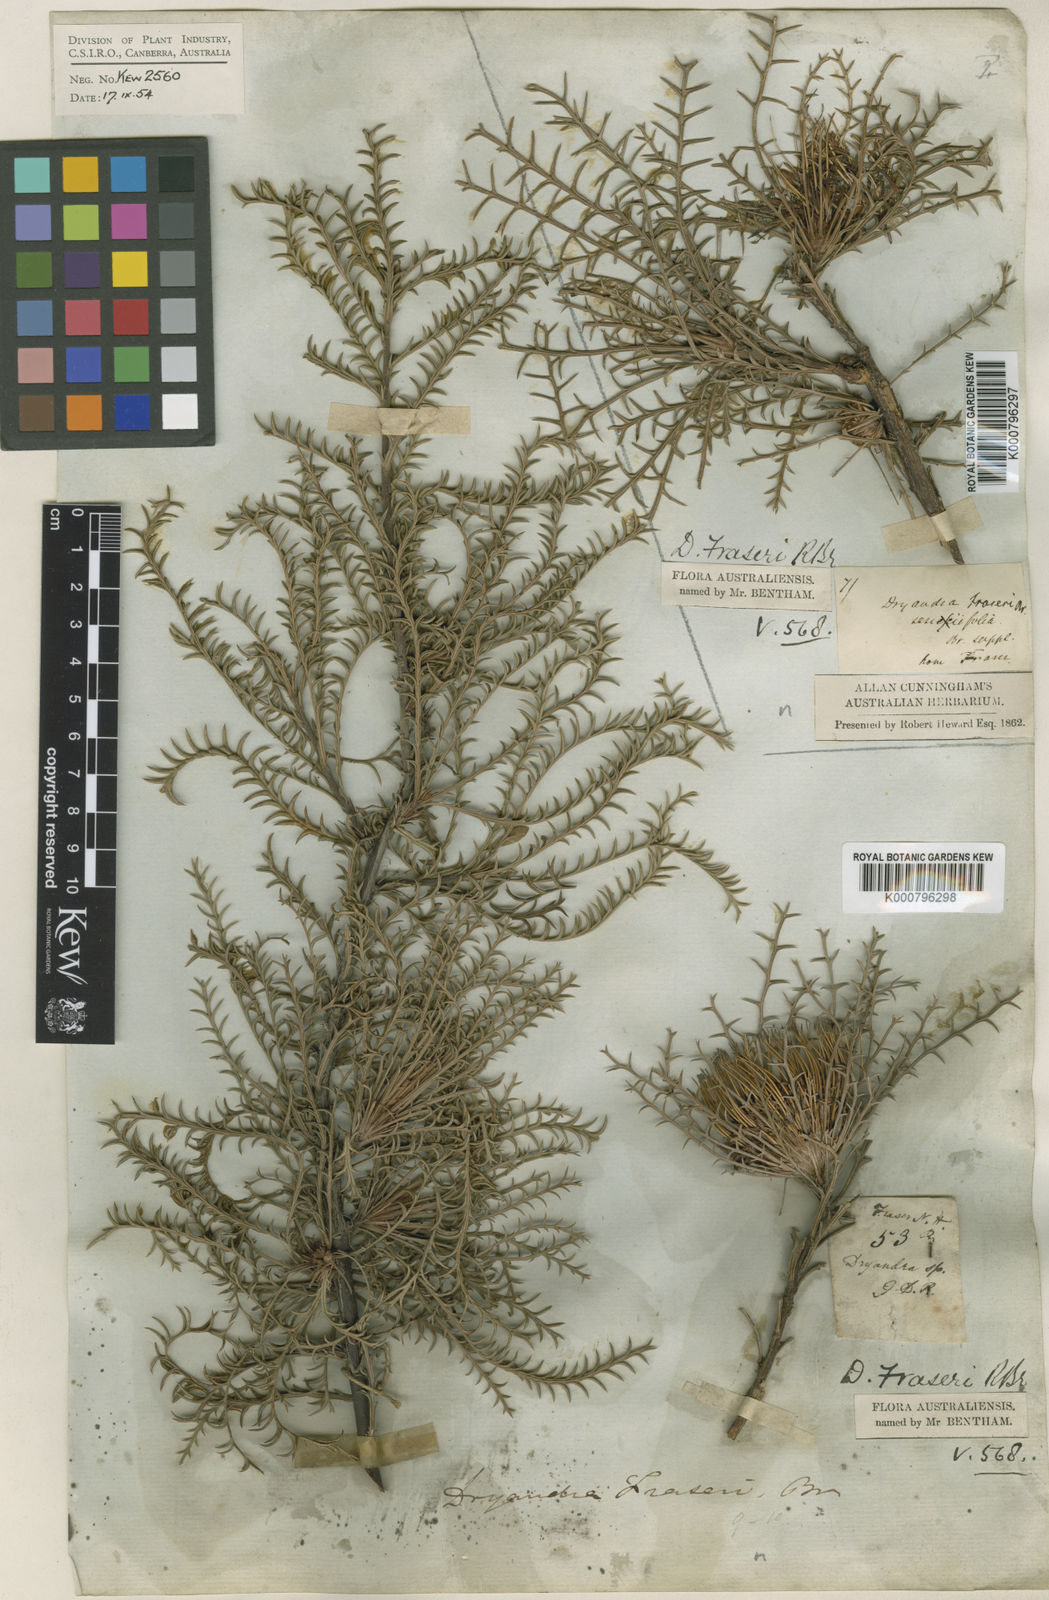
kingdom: Plantae
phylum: Tracheophyta
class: Magnoliopsida
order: Proteales
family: Proteaceae
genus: Banksia
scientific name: Banksia fraseri
